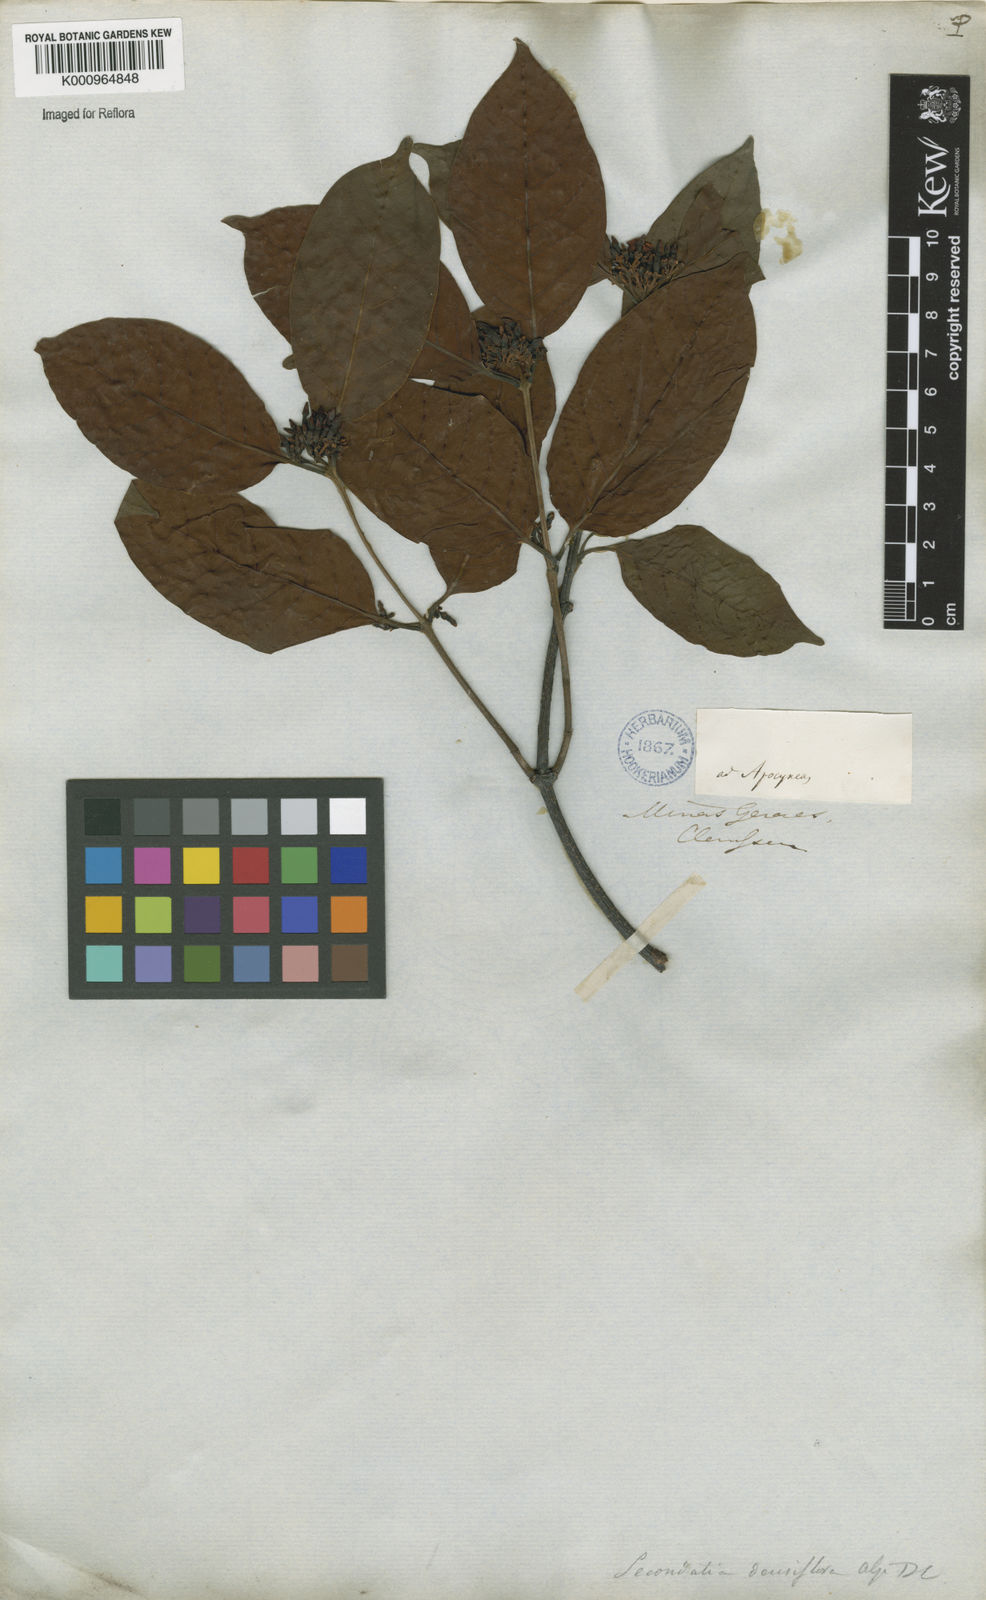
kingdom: Plantae
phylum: Tracheophyta
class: Magnoliopsida
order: Gentianales
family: Apocynaceae
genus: Secondatia
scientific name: Secondatia densiflora
